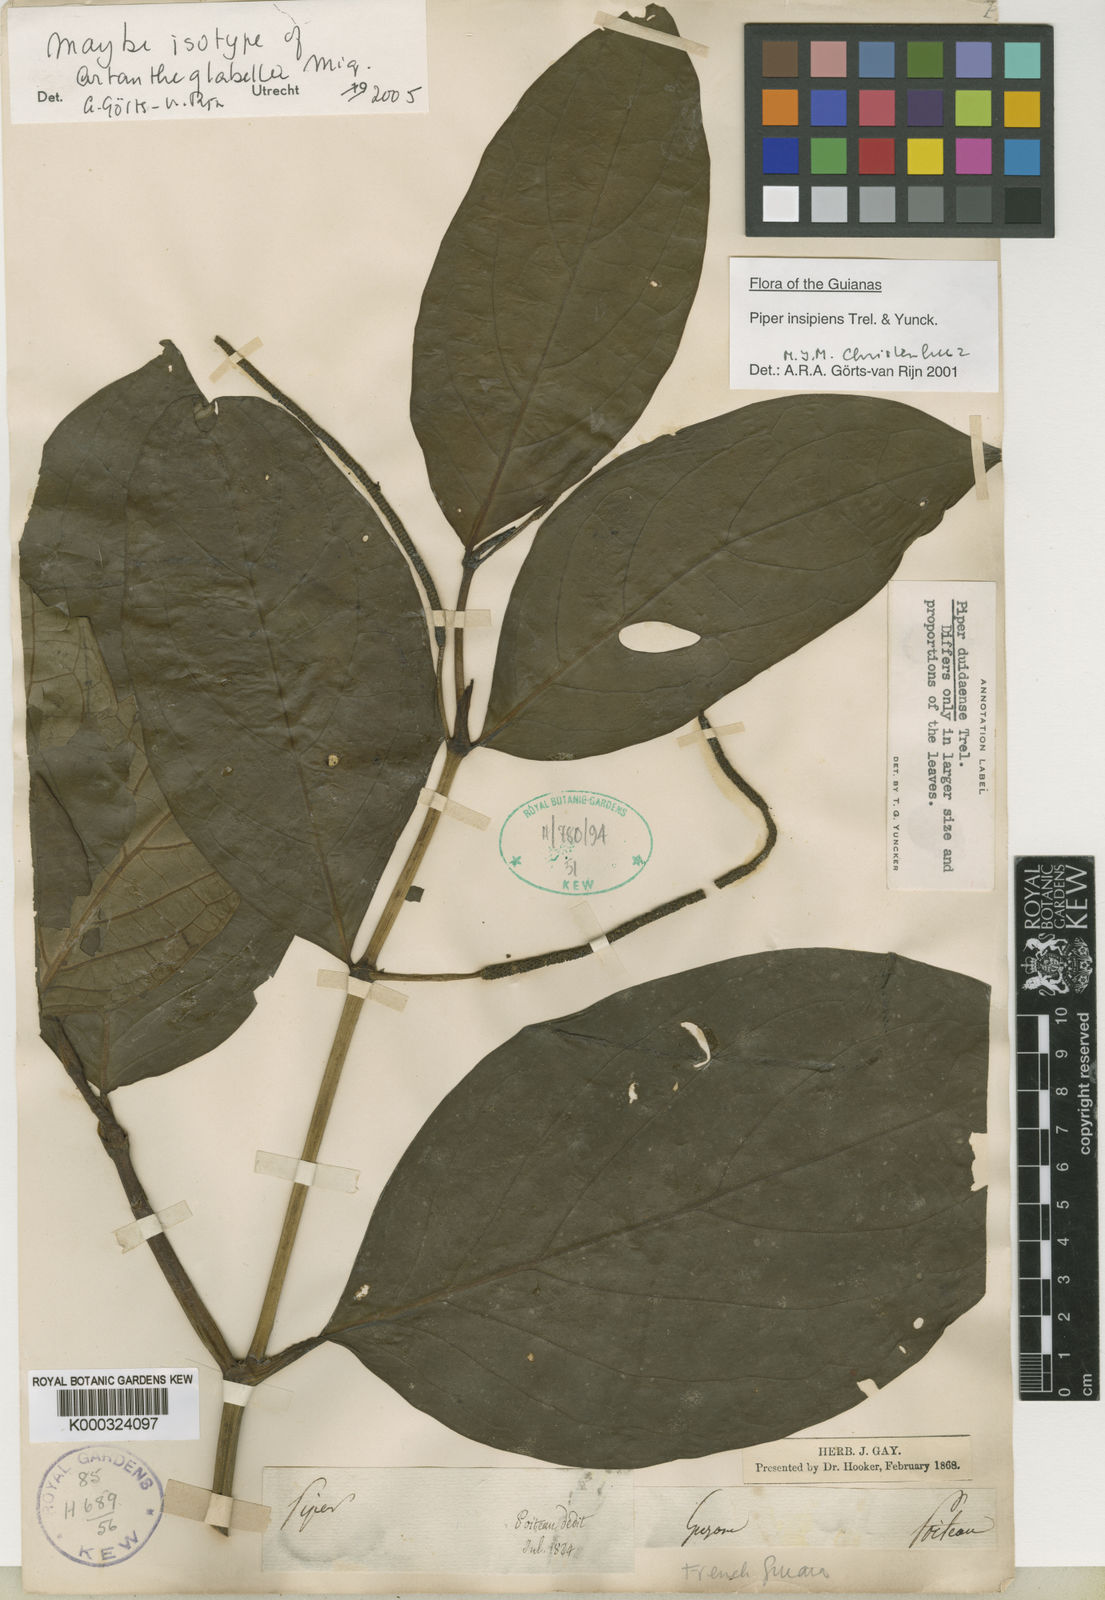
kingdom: Plantae
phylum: Tracheophyta
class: Magnoliopsida
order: Piperales
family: Piperaceae
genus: Piper
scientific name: Piper divaricatum
